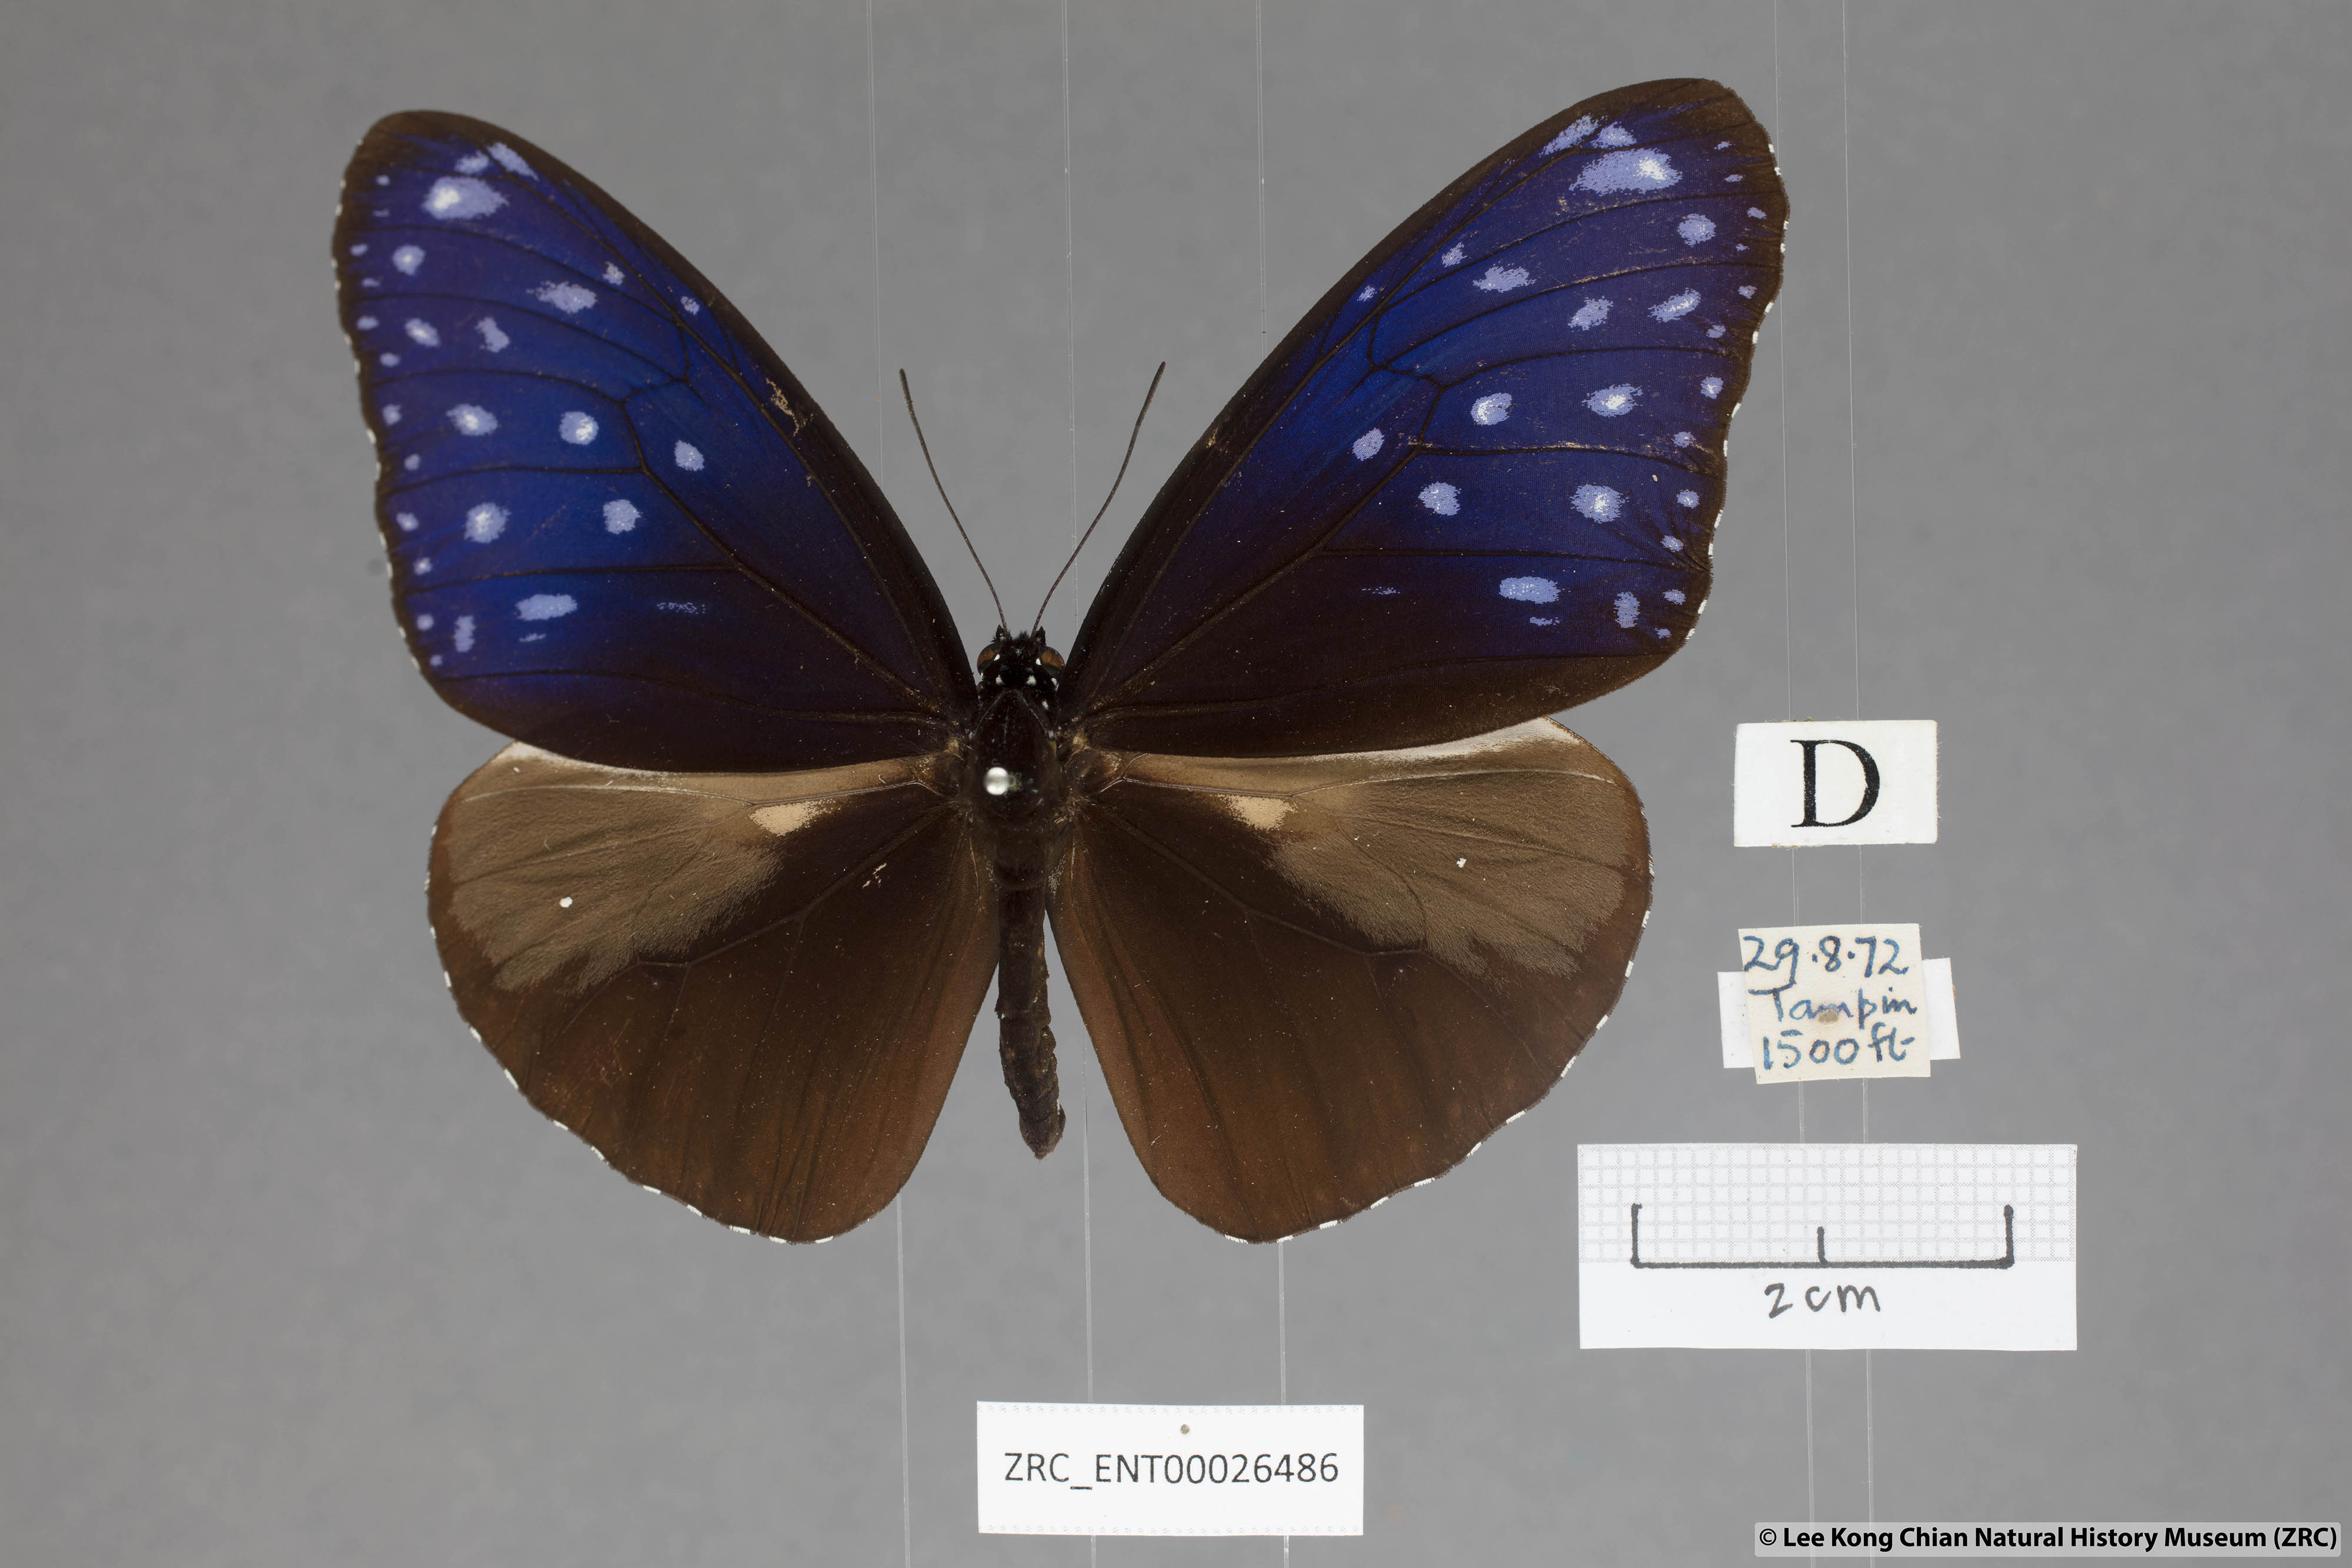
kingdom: Animalia
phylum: Arthropoda
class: Insecta
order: Lepidoptera
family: Nymphalidae
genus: Euploea
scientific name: Euploea mulciber
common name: Striped blue crow butterfly
